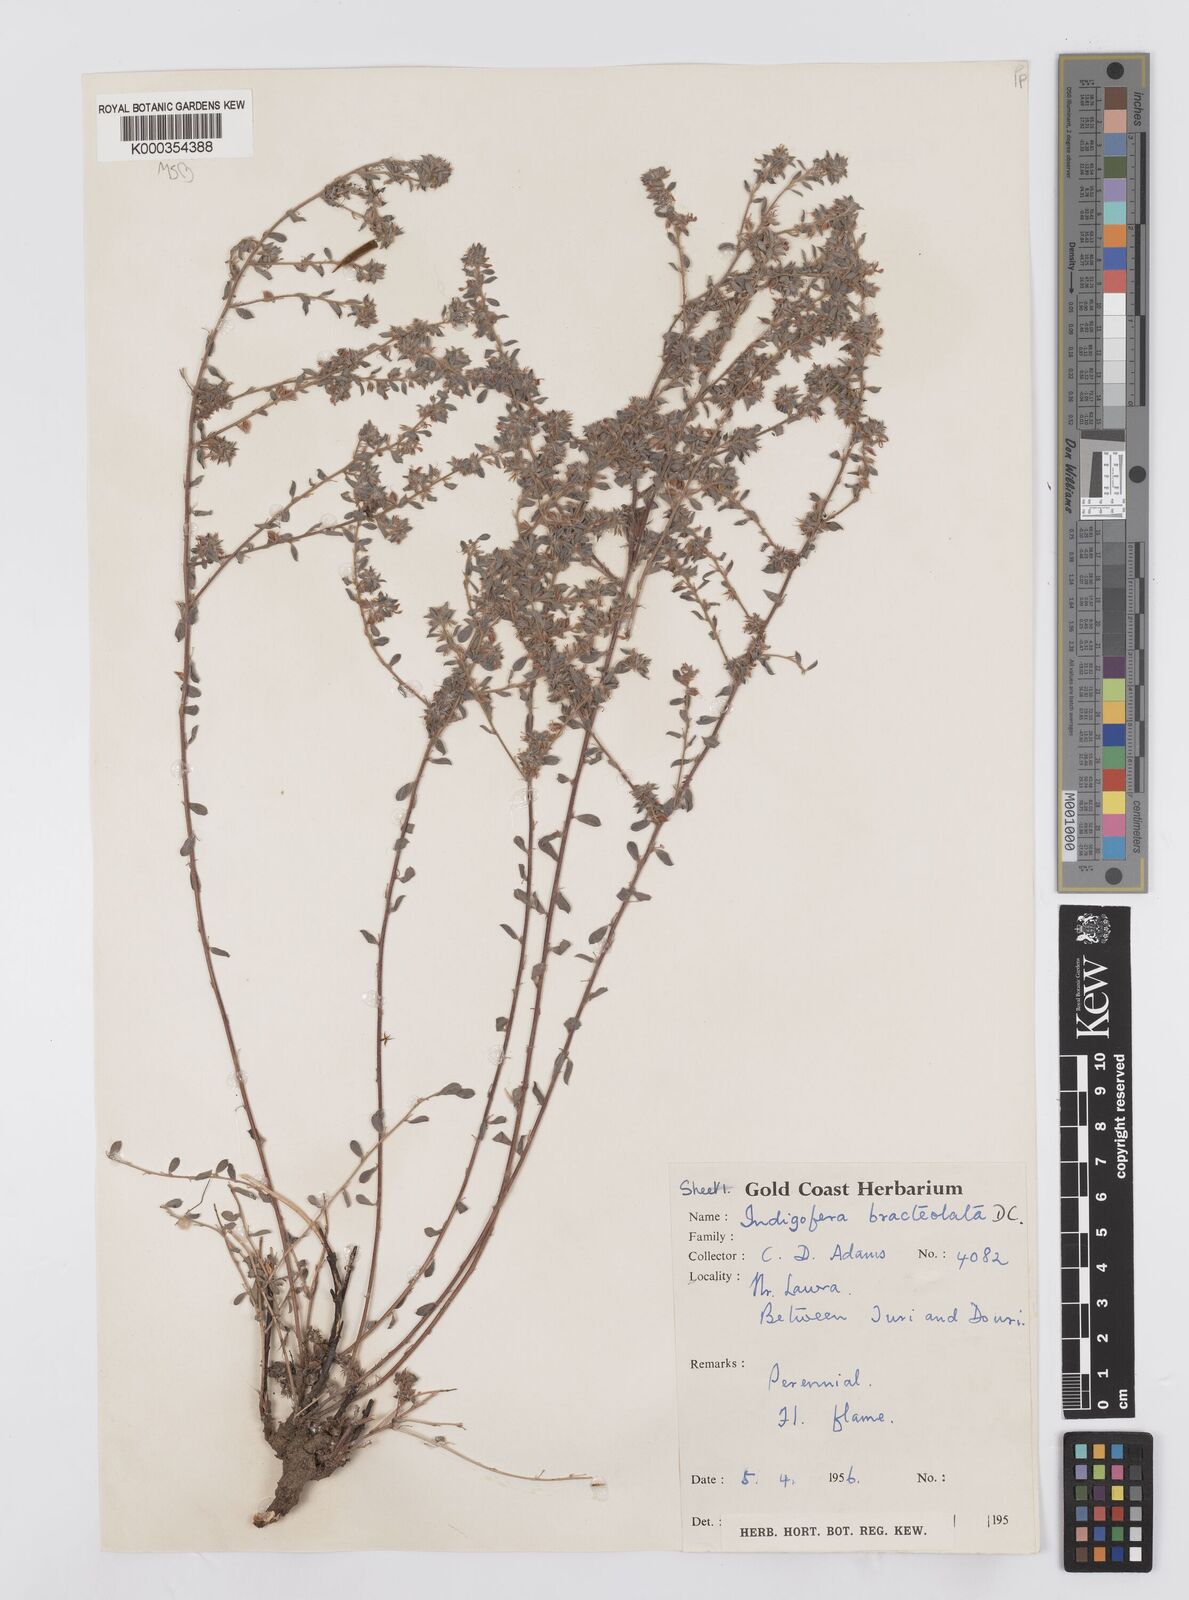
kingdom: Plantae
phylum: Tracheophyta
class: Magnoliopsida
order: Fabales
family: Fabaceae
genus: Indigofera
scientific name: Indigofera bracteolata
